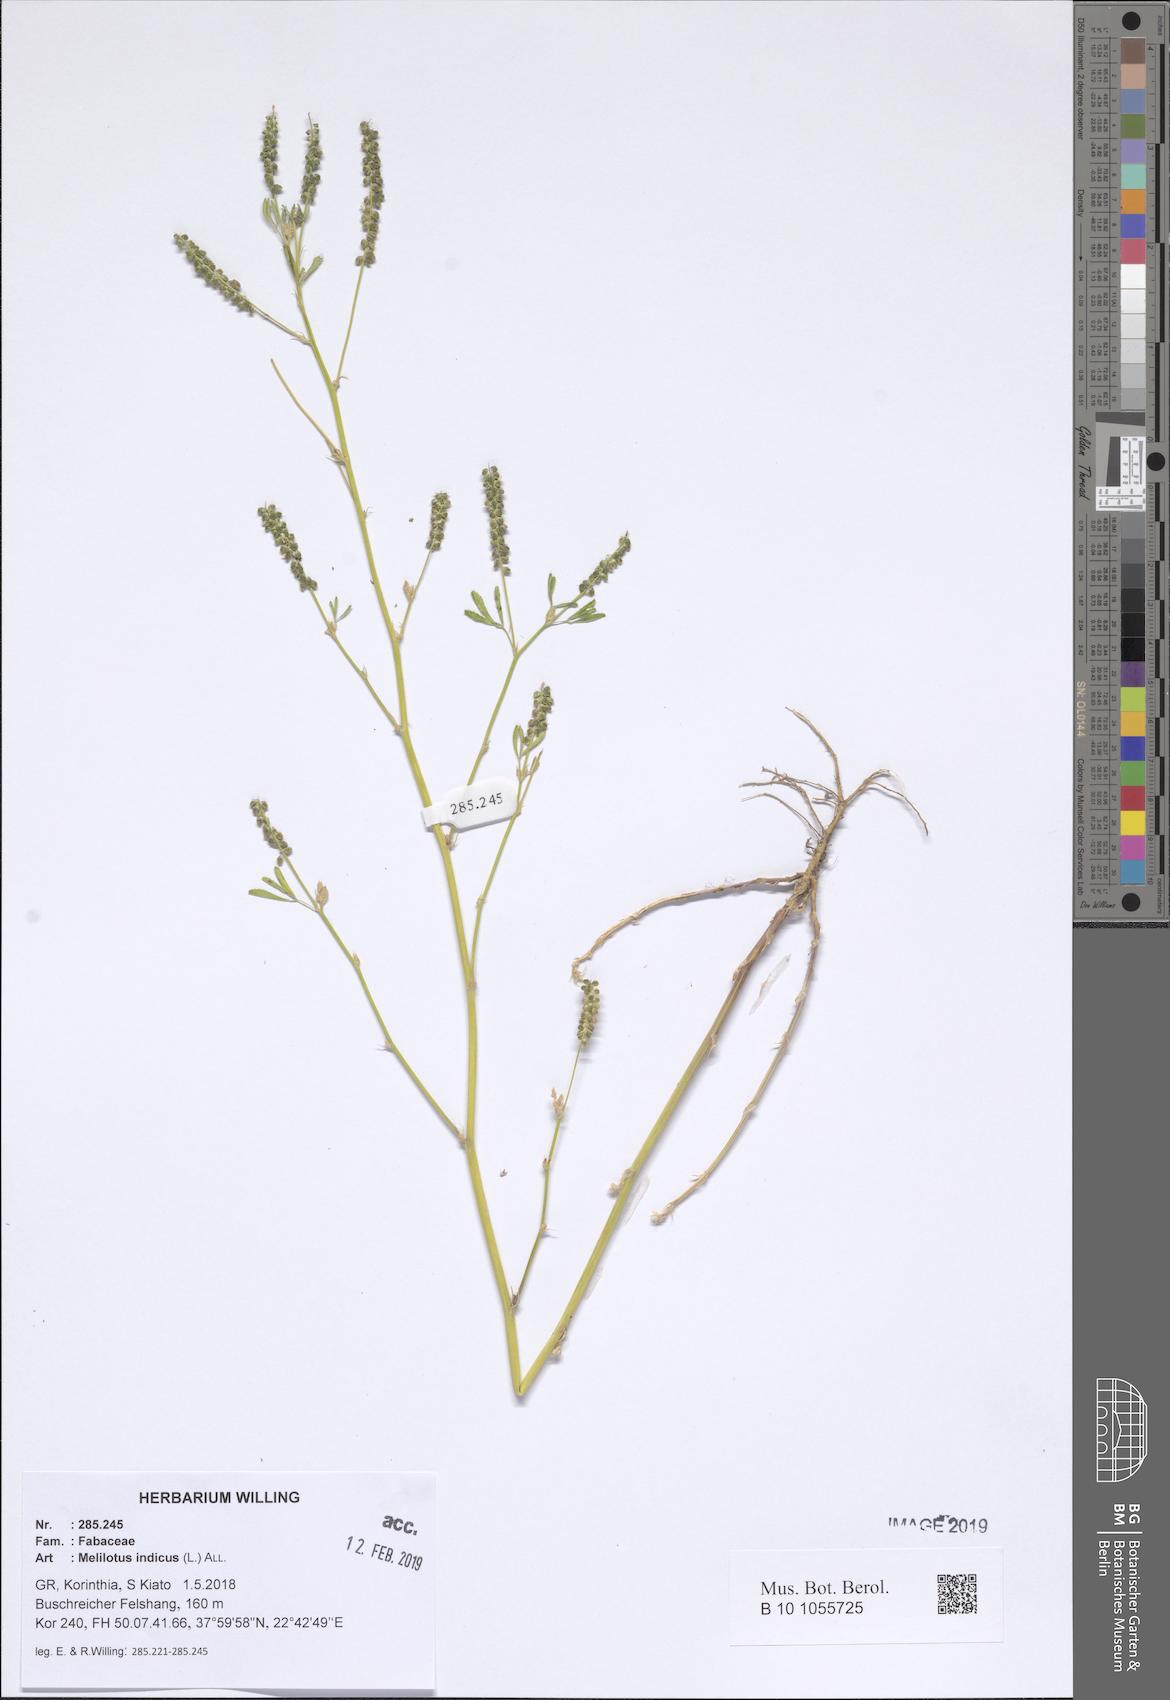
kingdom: Plantae
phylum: Tracheophyta
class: Magnoliopsida
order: Fabales
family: Fabaceae
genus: Melilotus
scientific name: Melilotus indicus
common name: Small melilot
